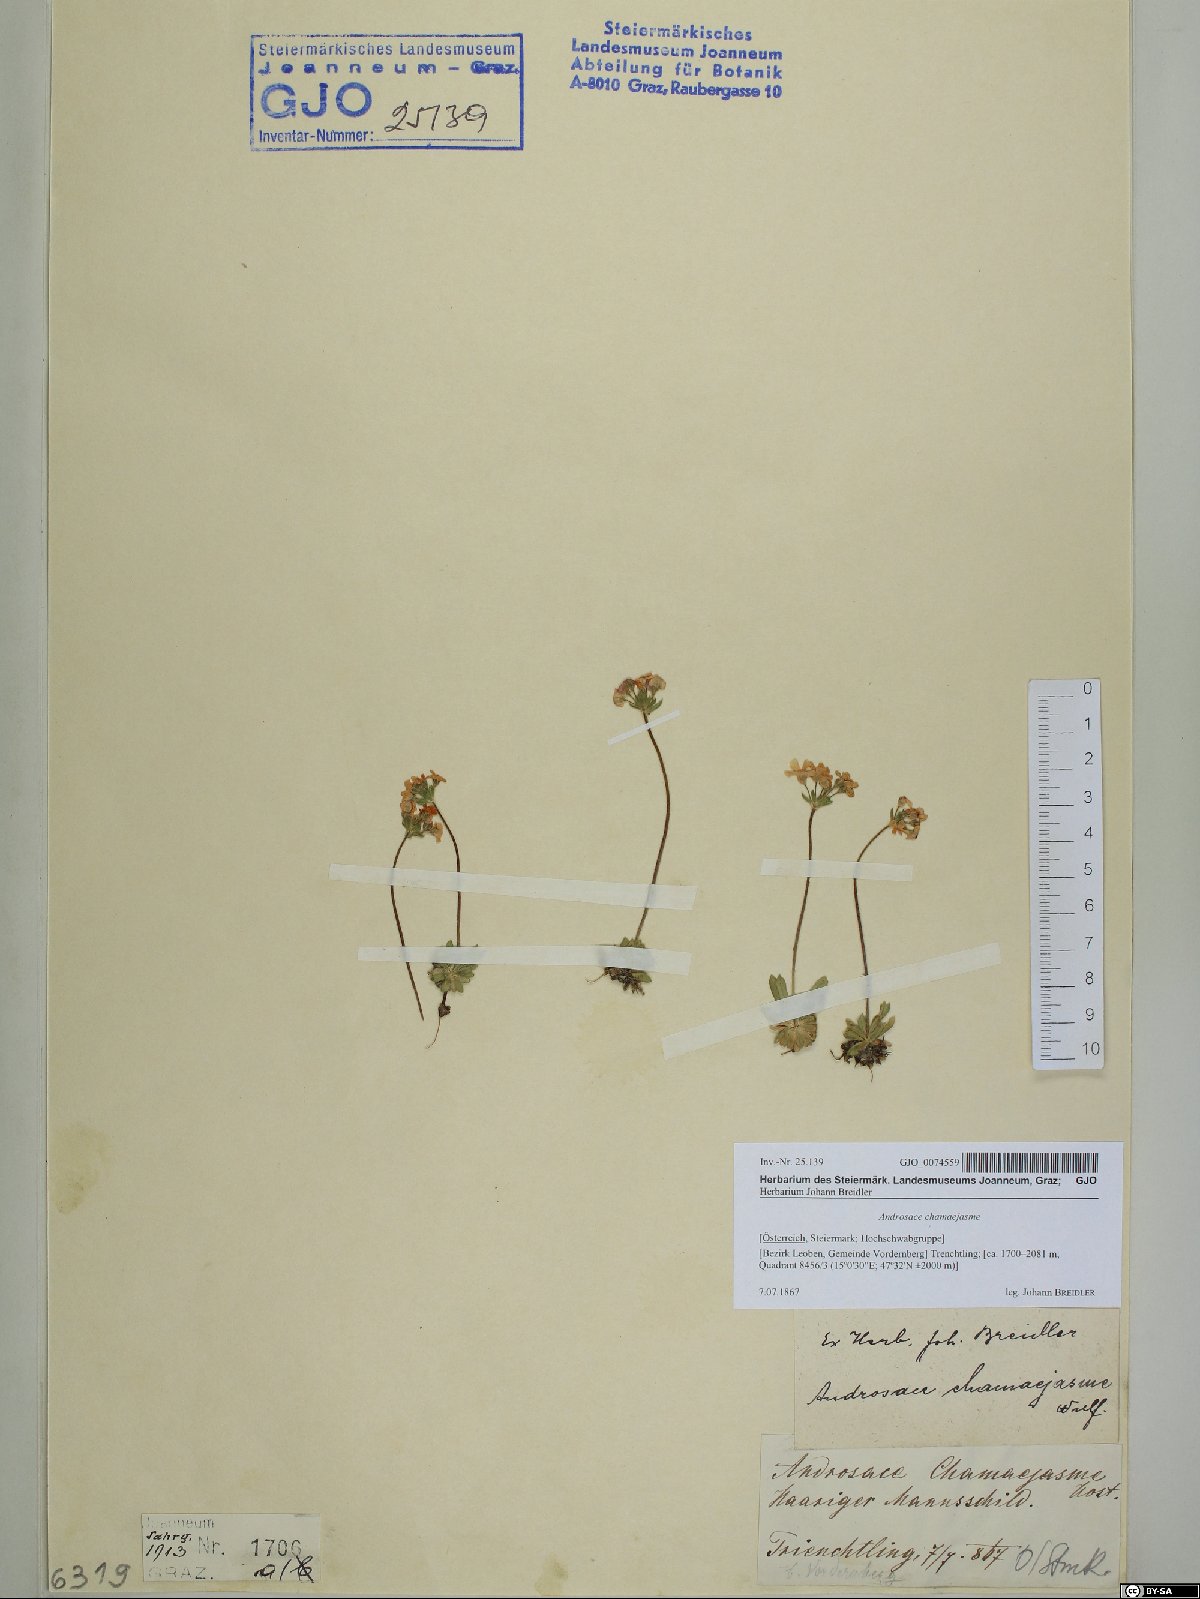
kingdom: Plantae
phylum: Tracheophyta
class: Magnoliopsida
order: Ericales
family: Primulaceae
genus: Androsace
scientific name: Androsace chamaejasme
